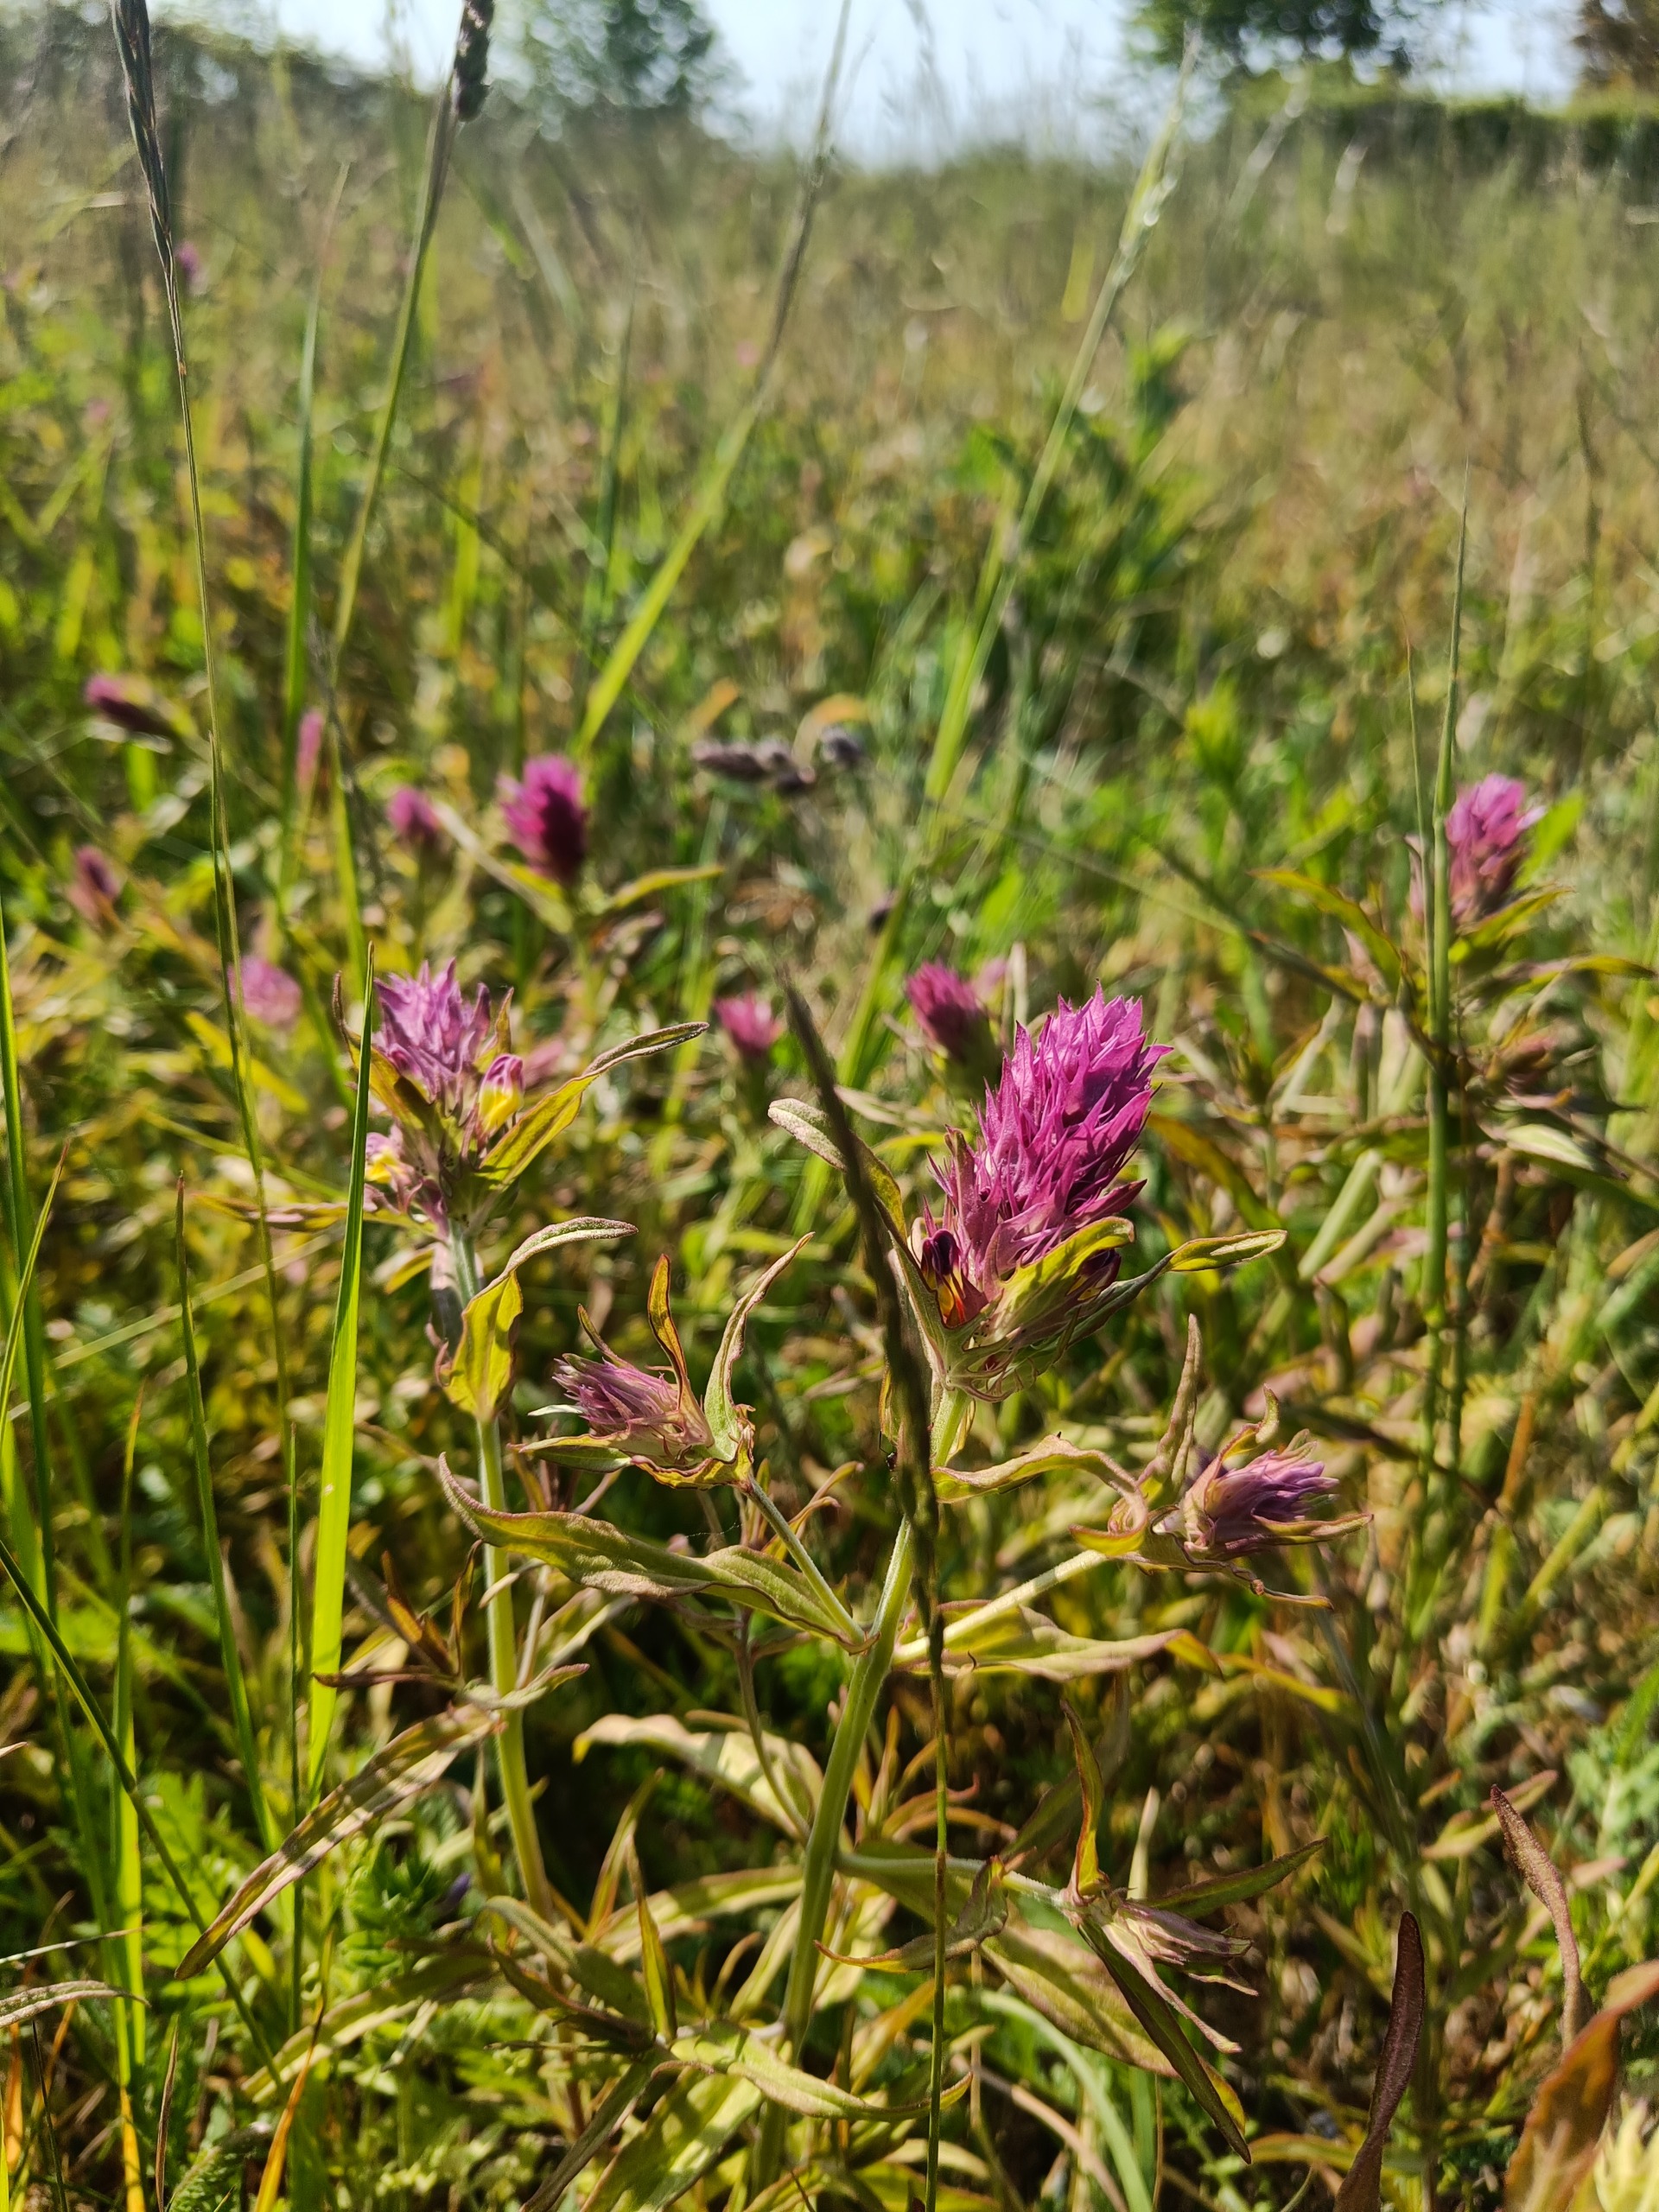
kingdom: Plantae
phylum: Tracheophyta
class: Magnoliopsida
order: Lamiales
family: Orobanchaceae
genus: Melampyrum
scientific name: Melampyrum arvense
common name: Ager-kohvede
